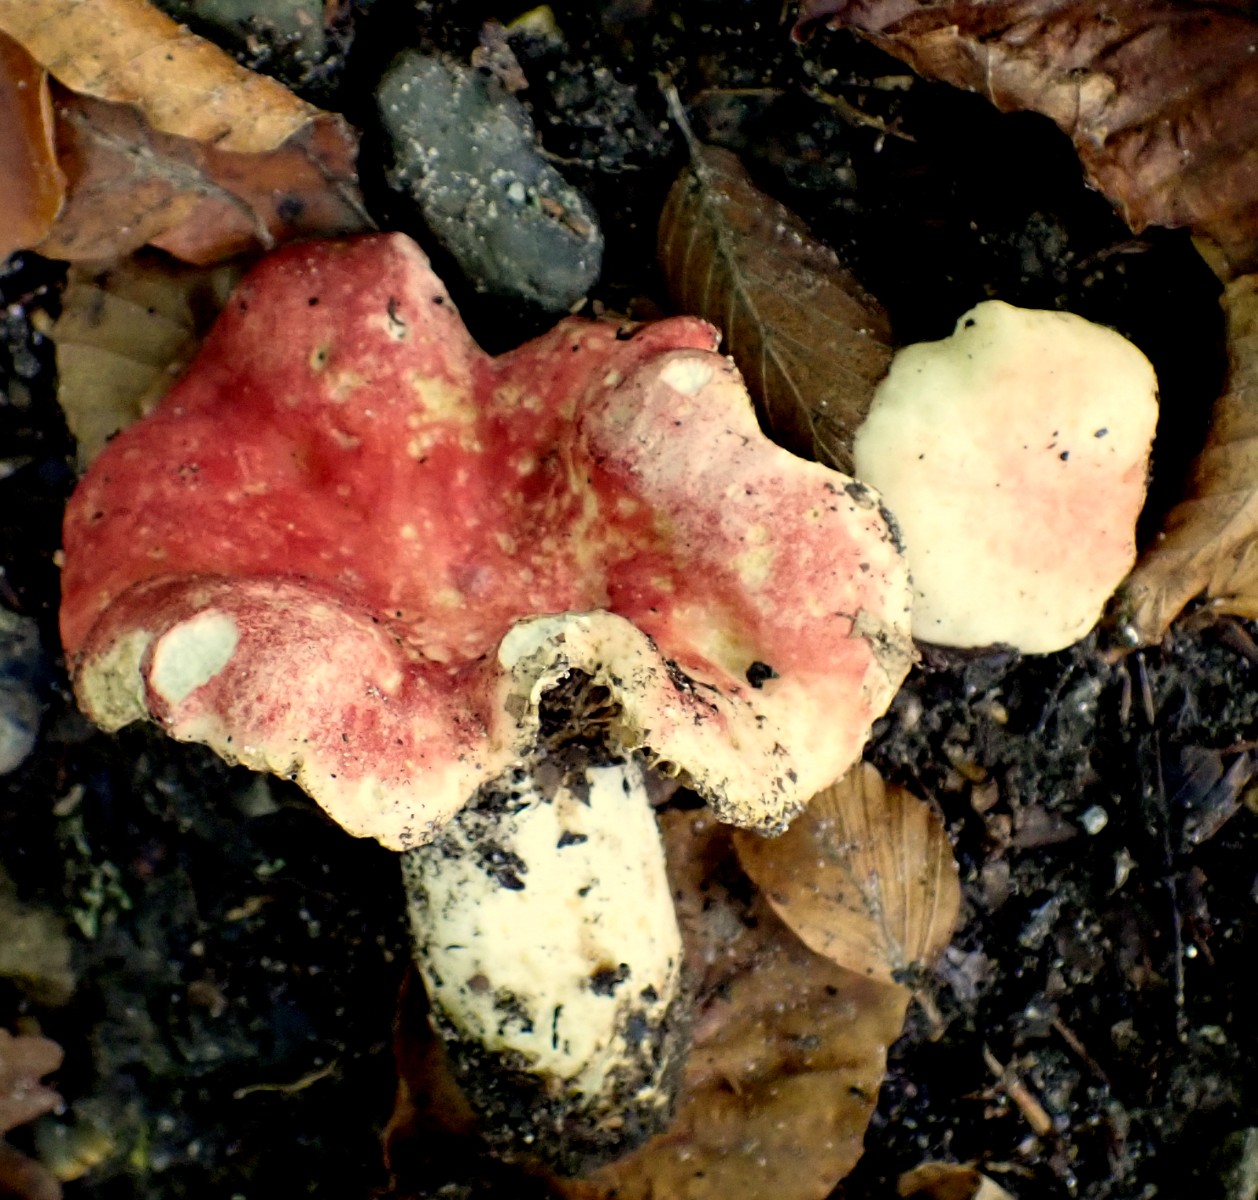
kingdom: Fungi
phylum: Basidiomycota
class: Agaricomycetes
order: Russulales
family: Russulaceae
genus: Russula
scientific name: Russula luteotacta
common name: gulplettet gift-skørhat
